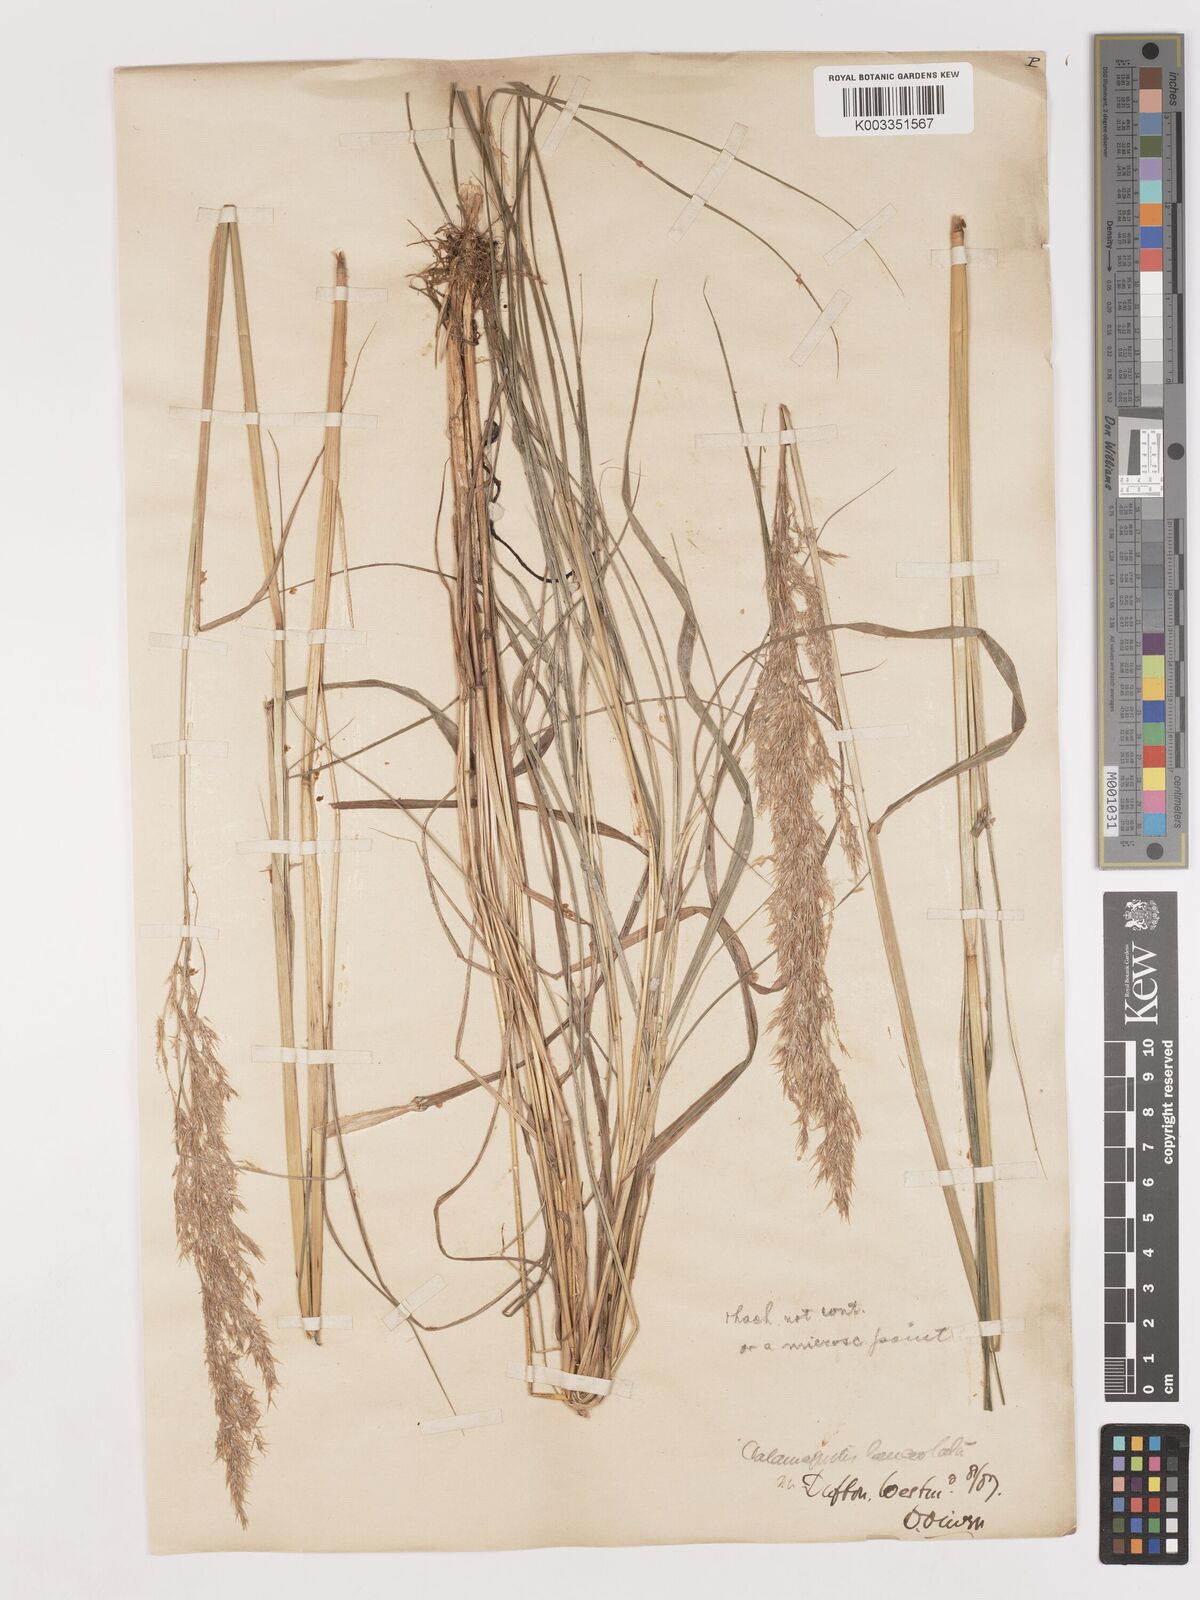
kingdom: Plantae
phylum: Tracheophyta
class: Liliopsida
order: Poales
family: Poaceae
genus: Calamagrostis
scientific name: Calamagrostis canescens
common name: Purple small-reed
